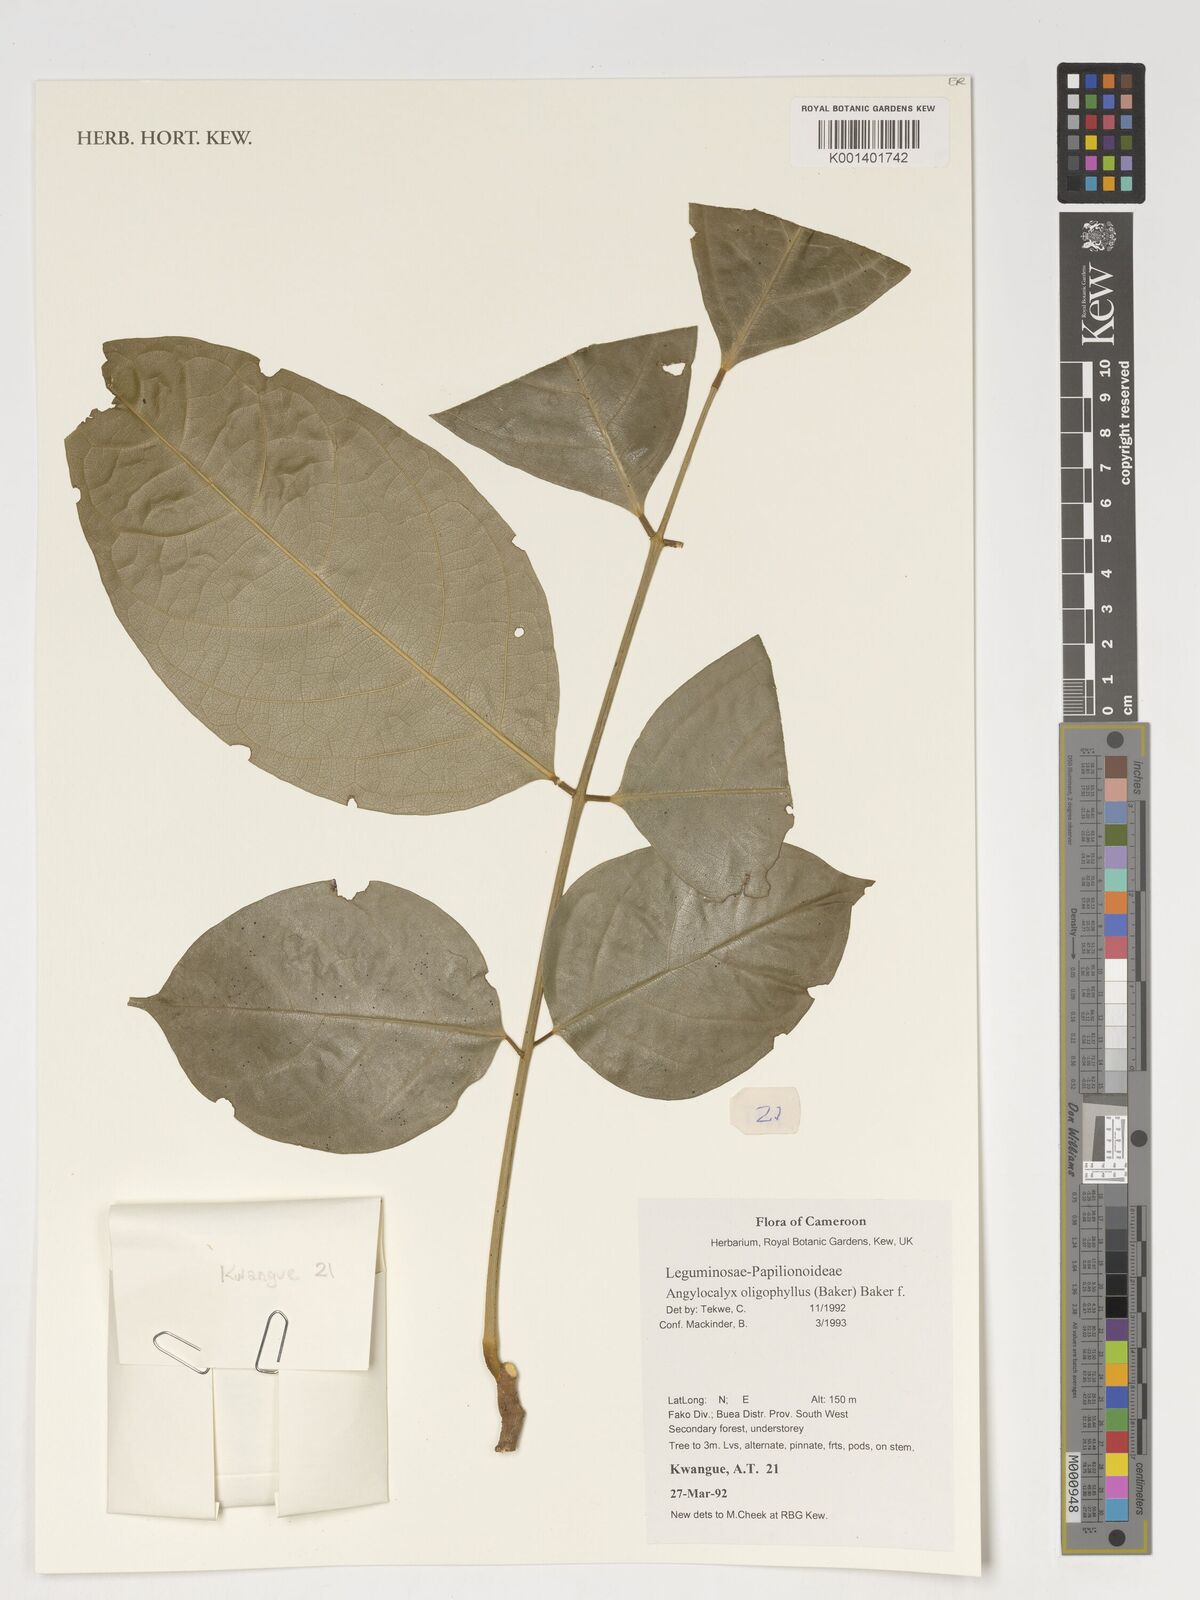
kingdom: Plantae
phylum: Tracheophyta
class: Magnoliopsida
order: Fabales
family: Fabaceae
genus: Angylocalyx
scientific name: Angylocalyx oligophyllus
